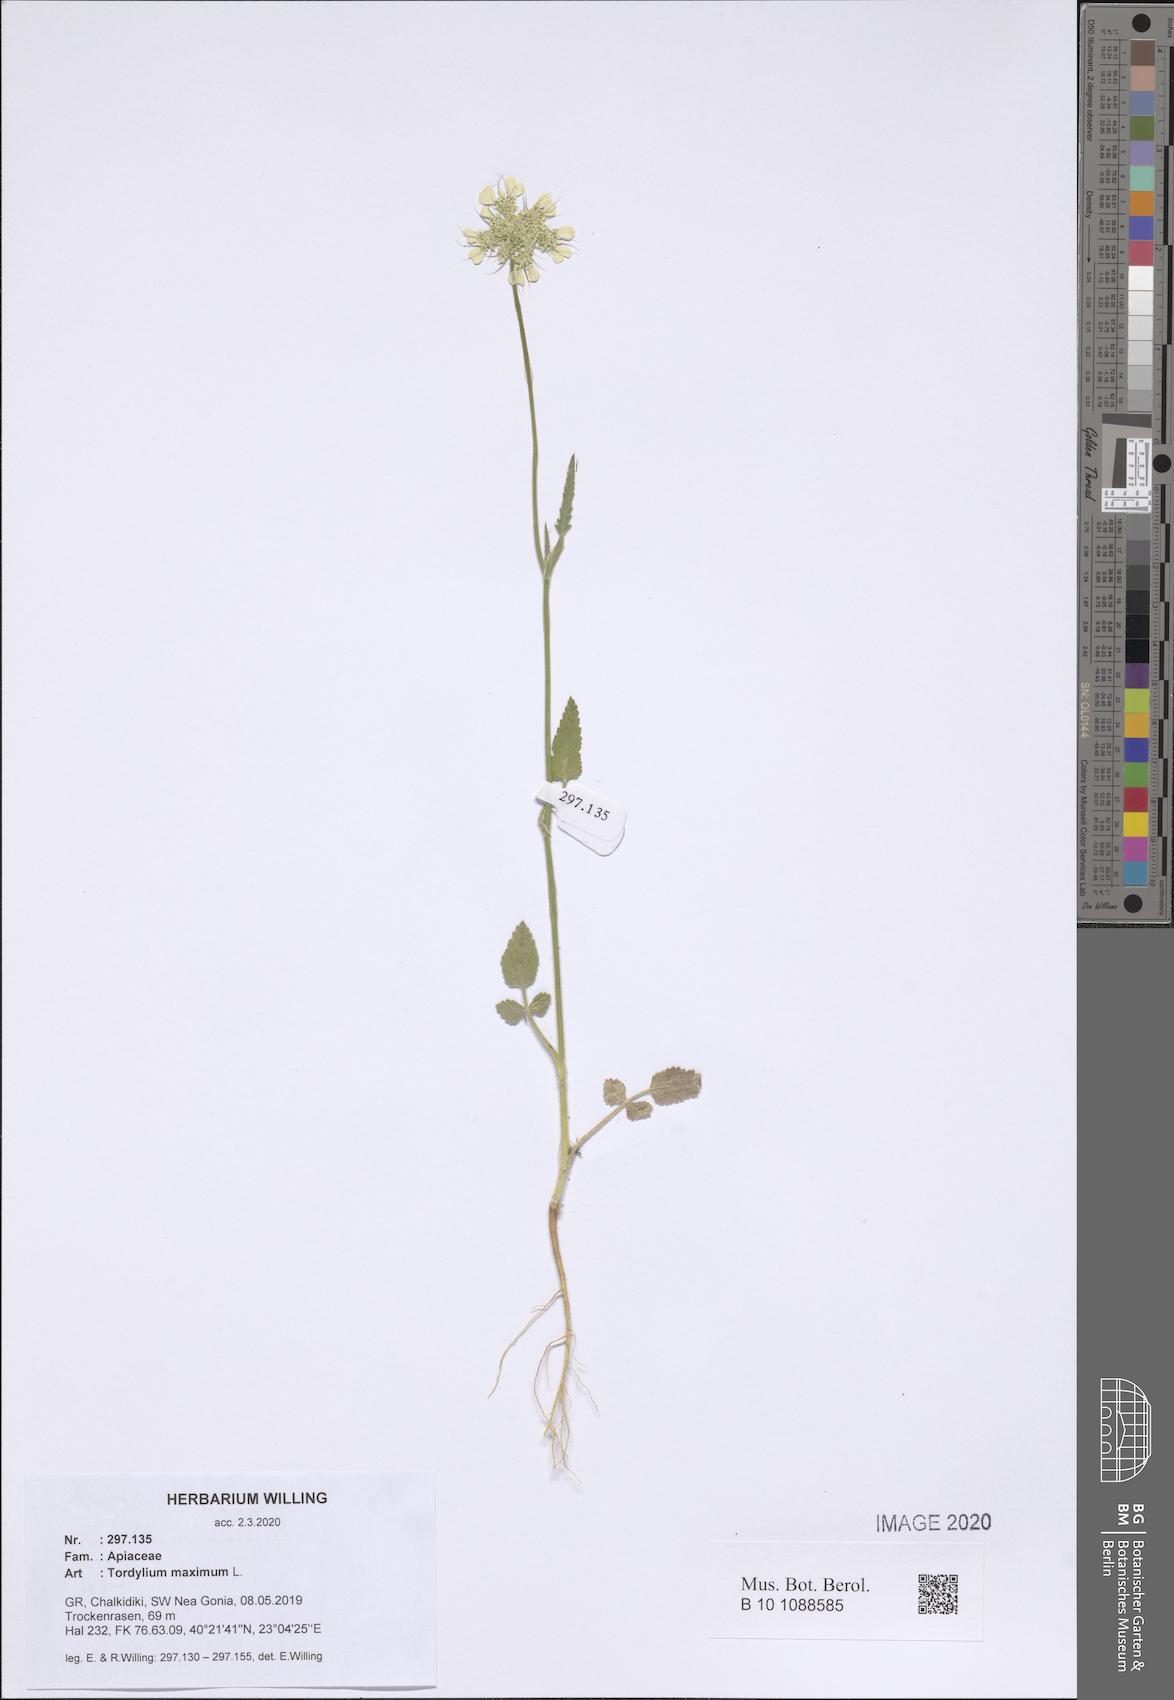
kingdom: Plantae
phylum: Tracheophyta
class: Magnoliopsida
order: Apiales
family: Apiaceae
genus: Tordylium
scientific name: Tordylium maximum
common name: Hartwort
